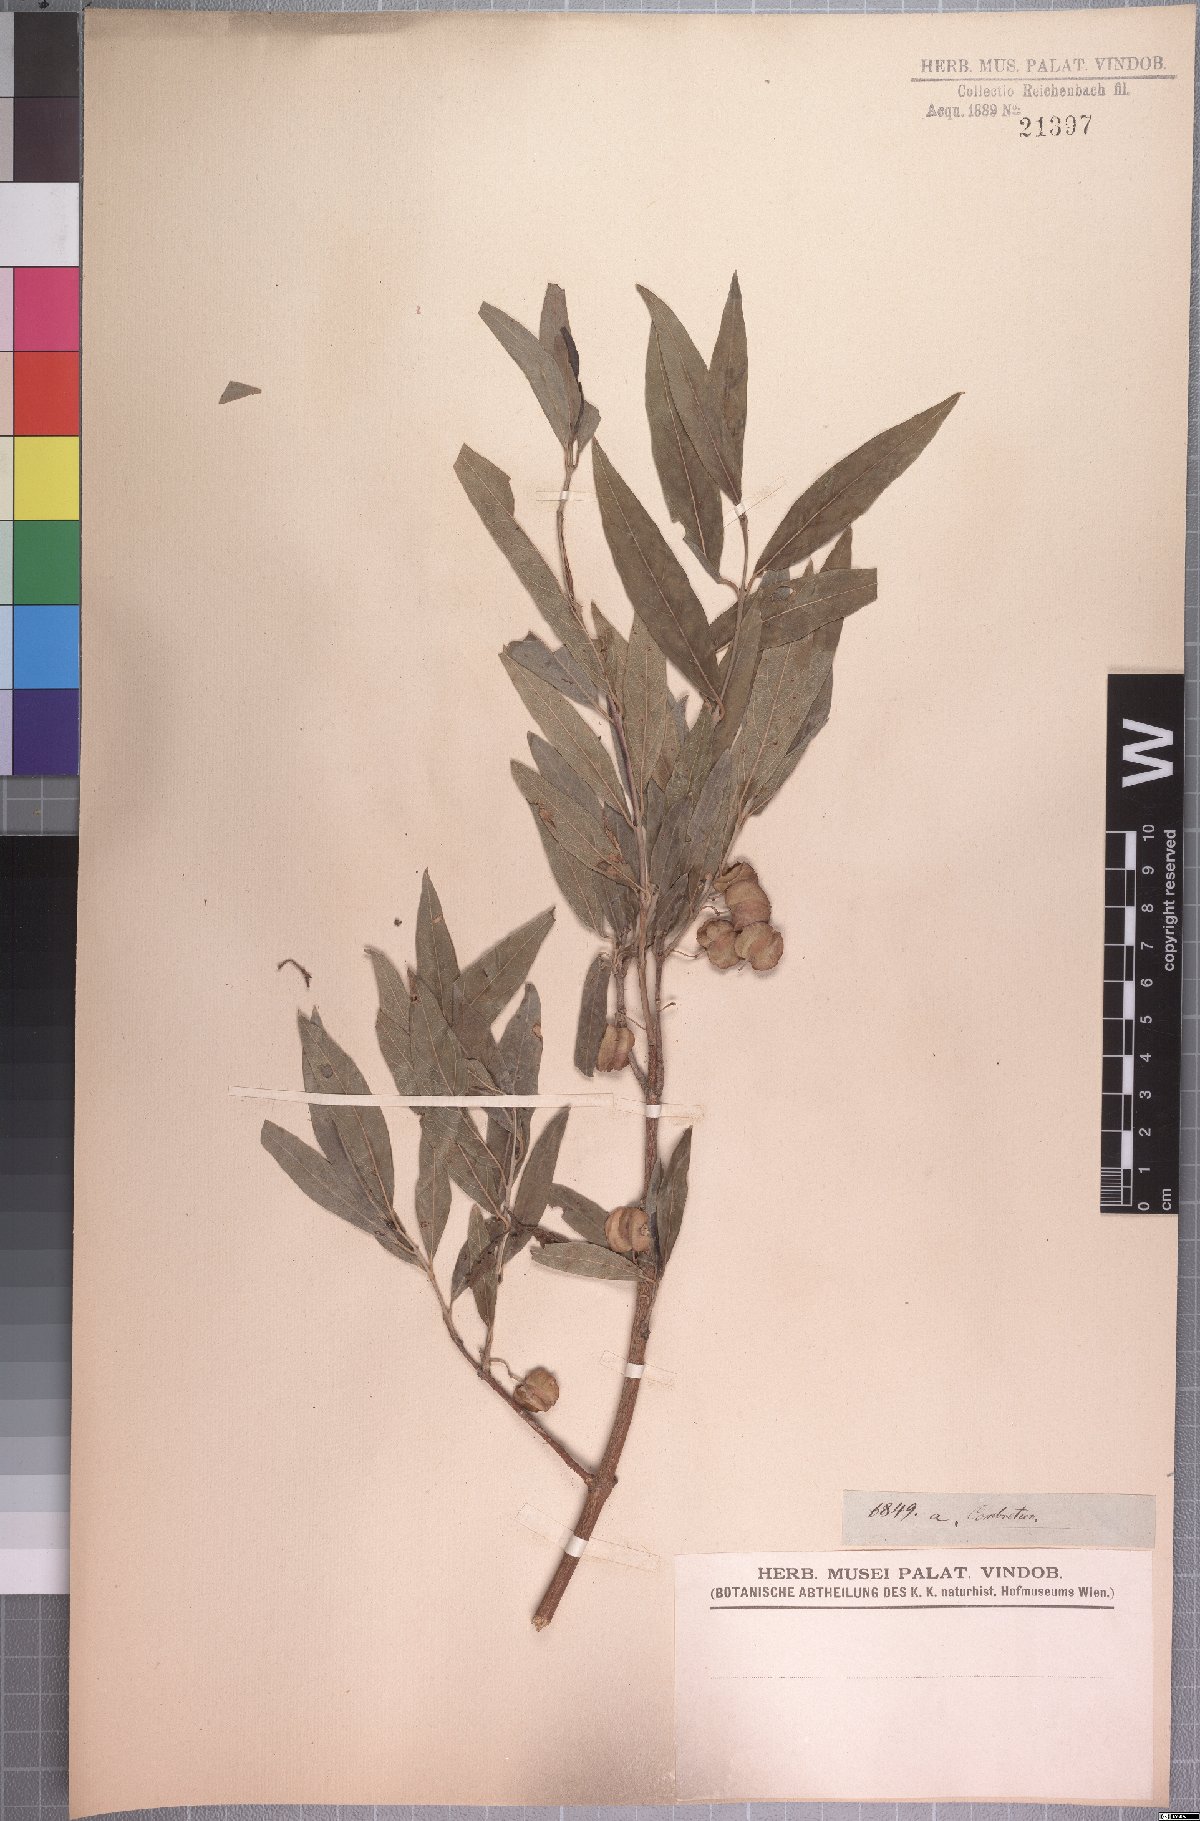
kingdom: Plantae
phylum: Tracheophyta
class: Magnoliopsida
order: Myrtales
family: Combretaceae
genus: Combretum
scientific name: Combretum caffrum
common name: Cape bushwillow
